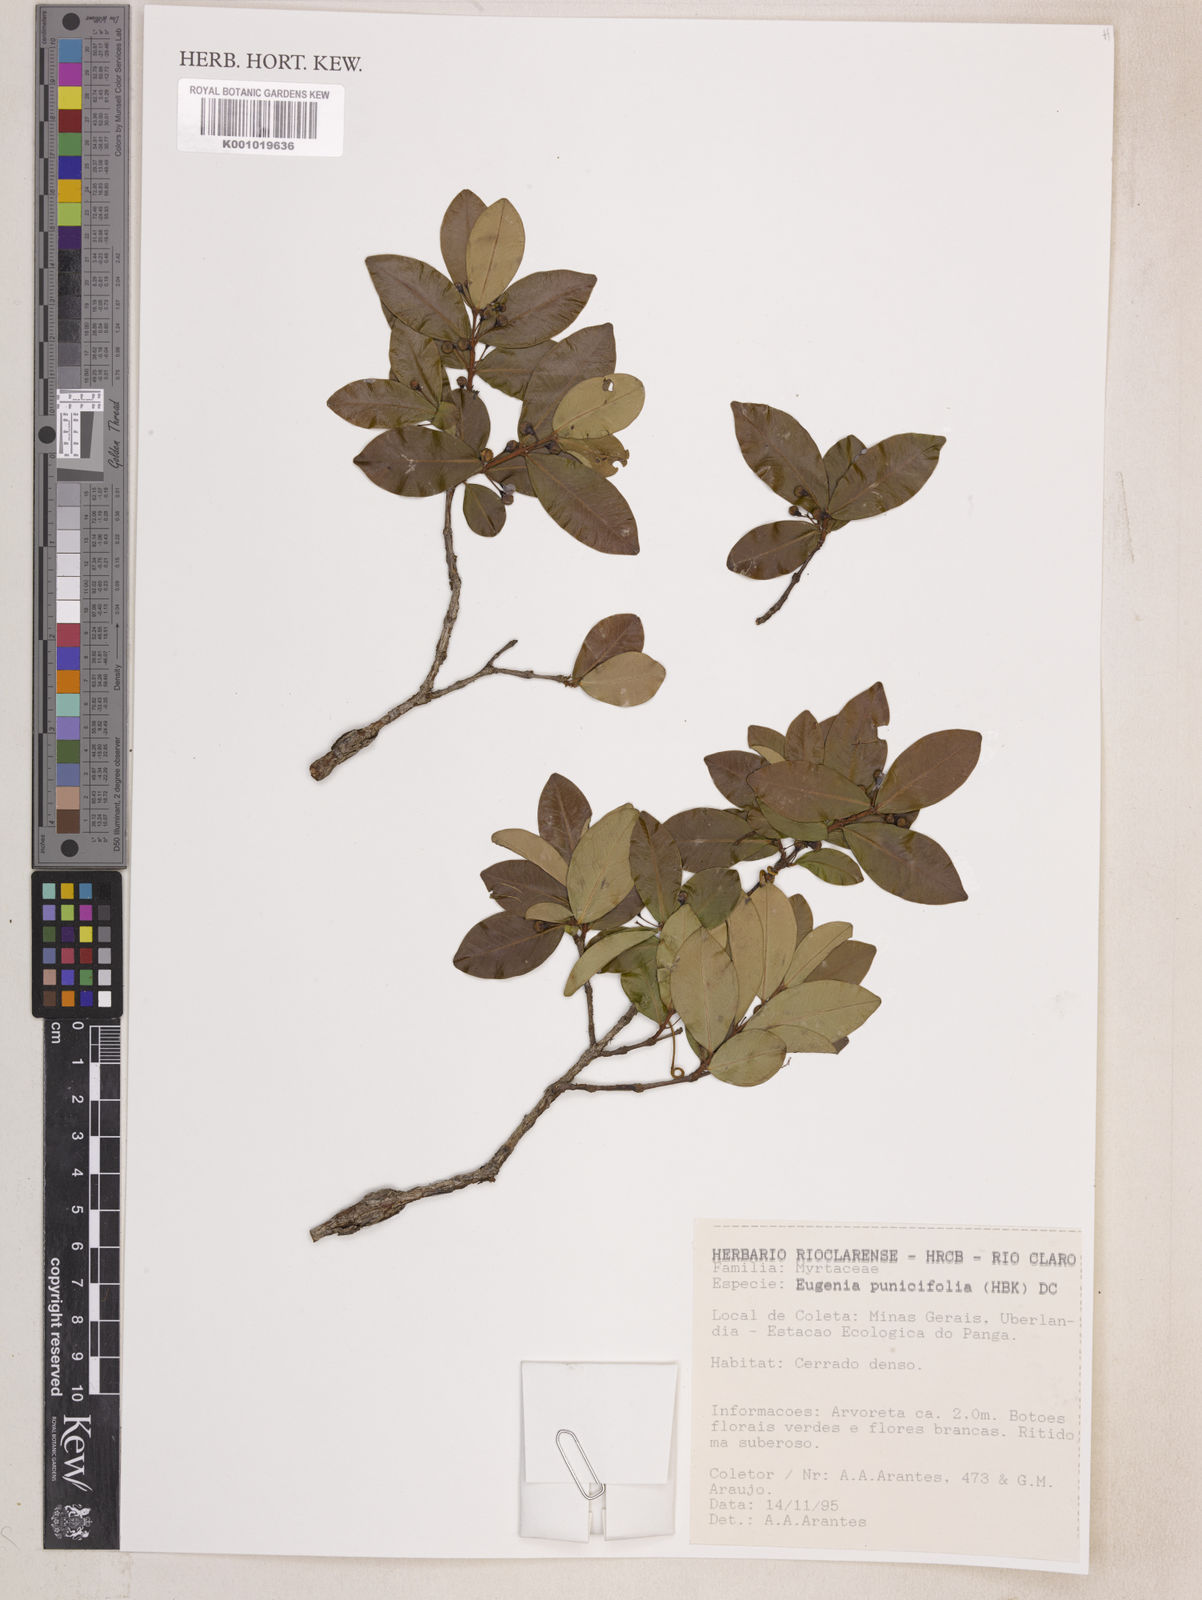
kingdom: Plantae
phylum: Tracheophyta
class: Magnoliopsida
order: Myrtales
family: Myrtaceae
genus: Eugenia
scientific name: Eugenia punicifolia
